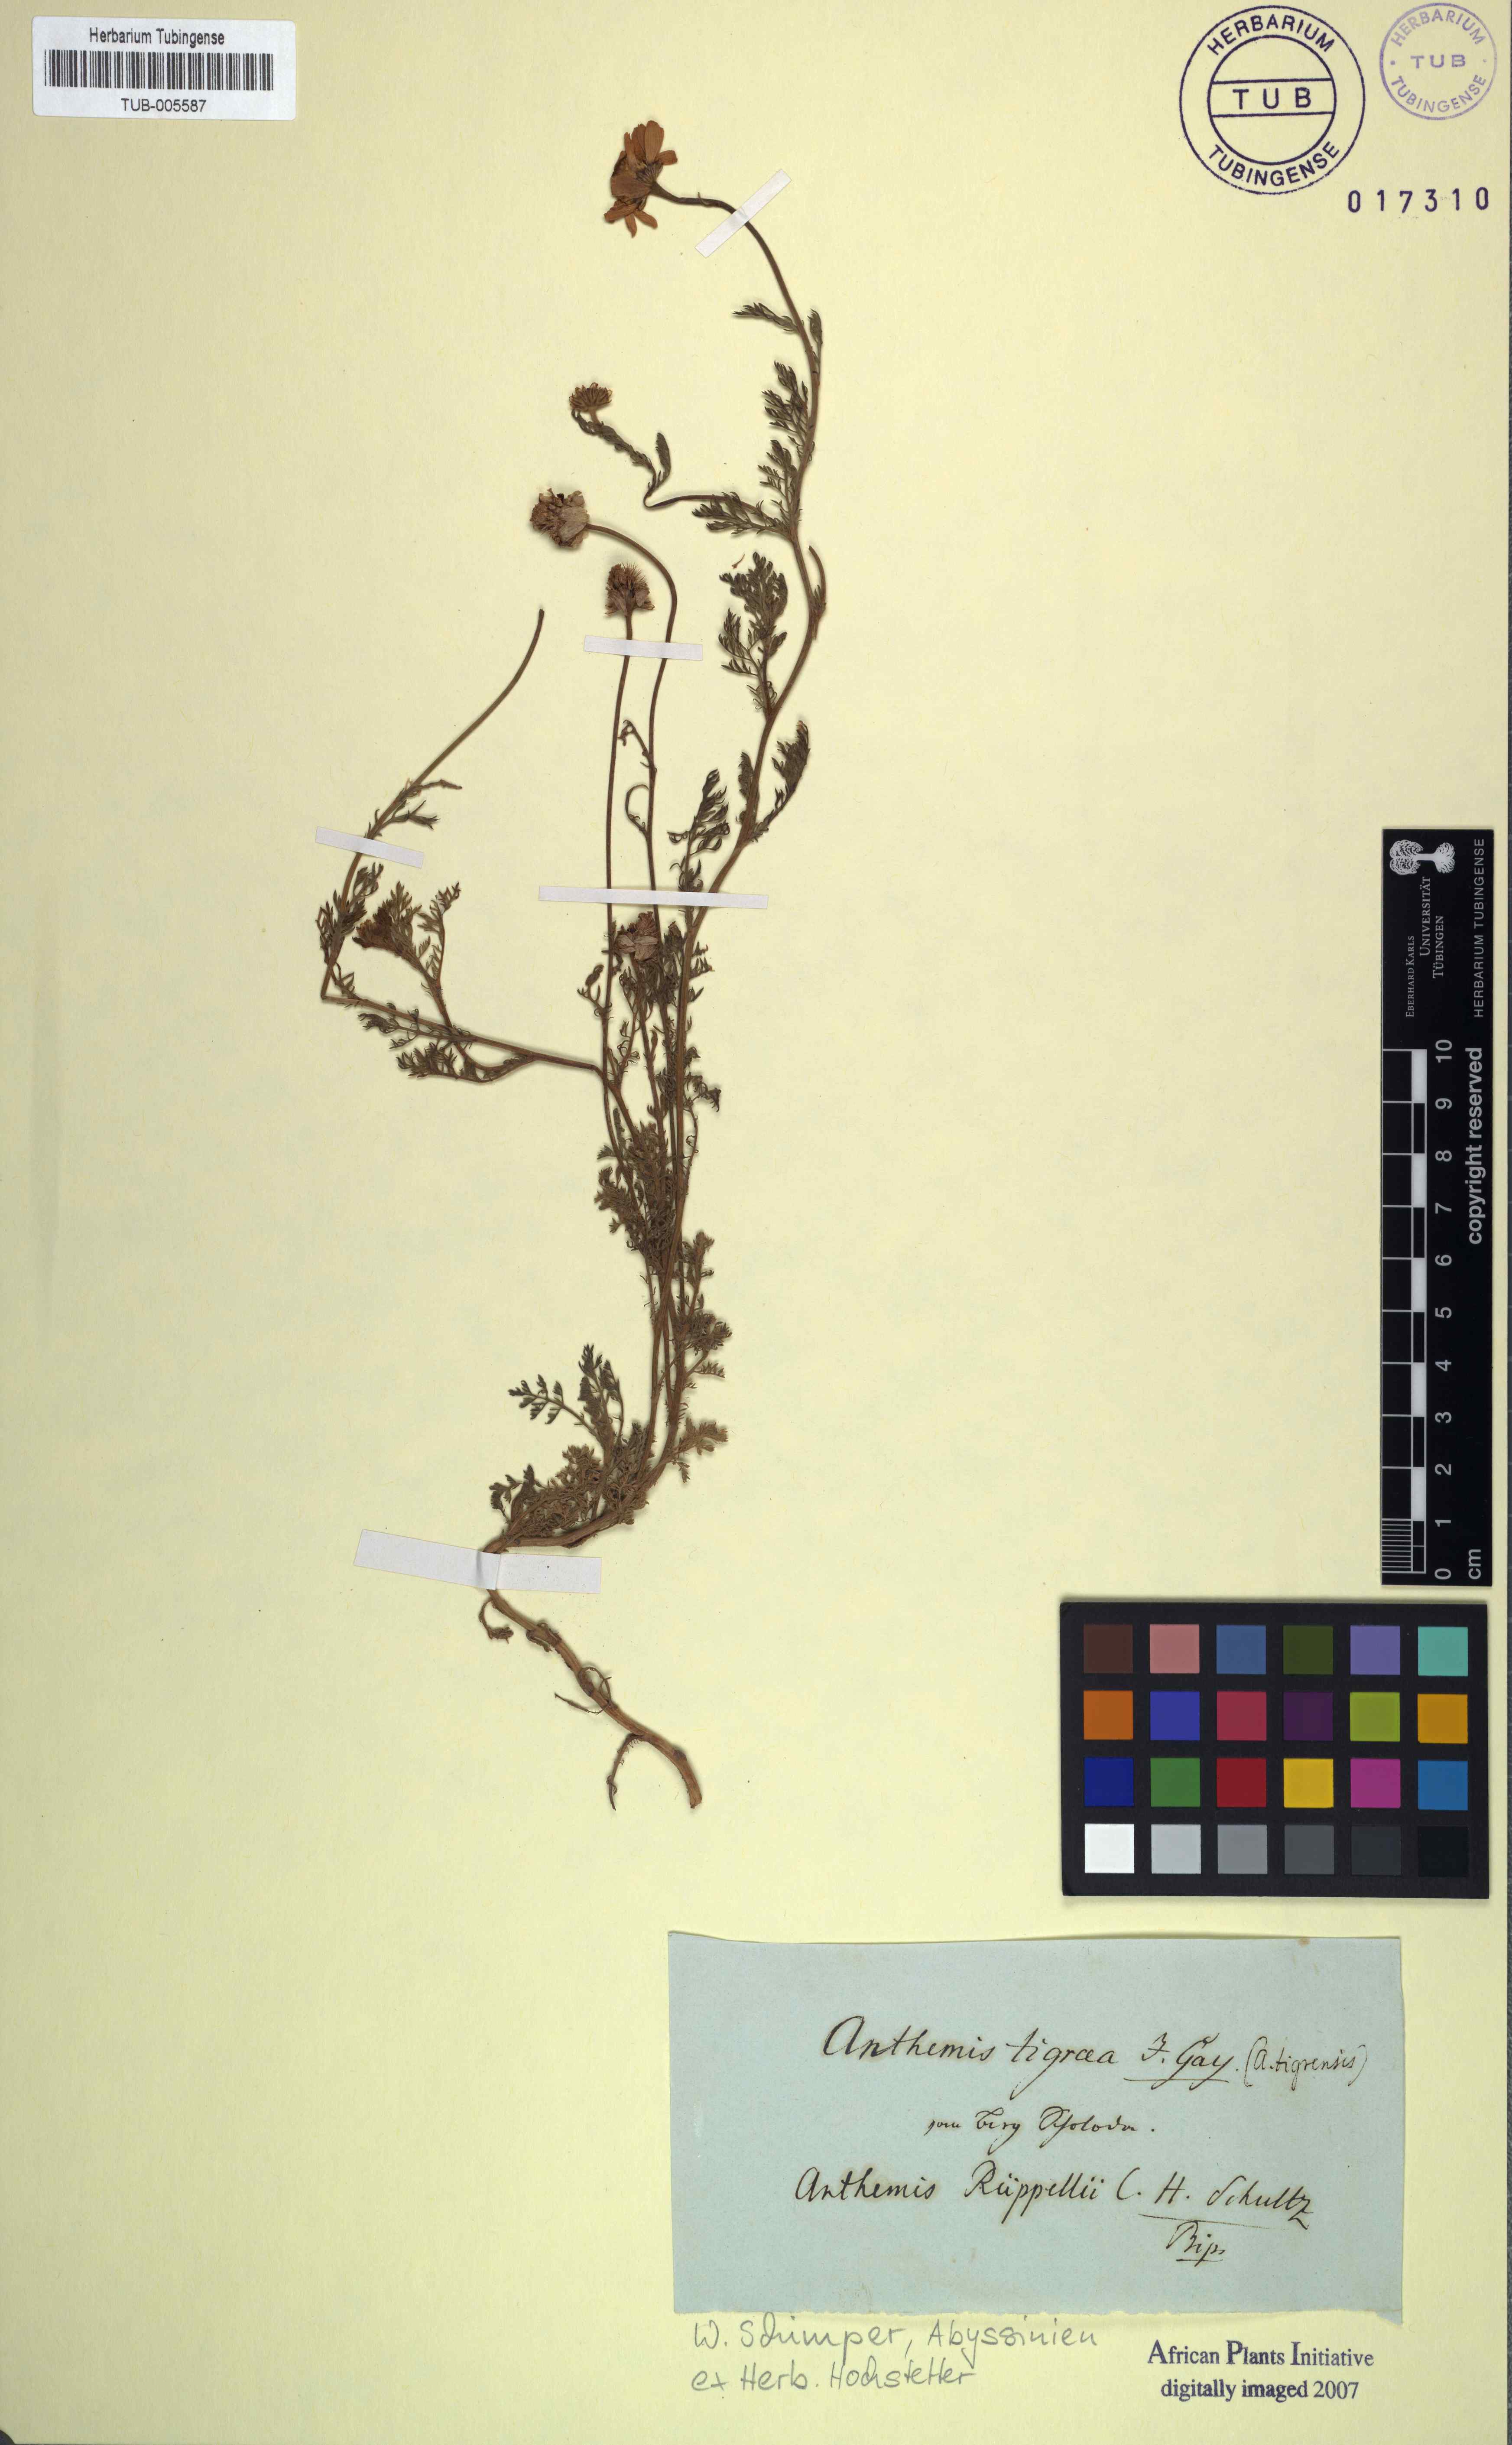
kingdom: Plantae
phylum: Tracheophyta
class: Magnoliopsida
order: Asterales
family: Asteraceae
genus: Anthemis
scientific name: Anthemis tigreensis
